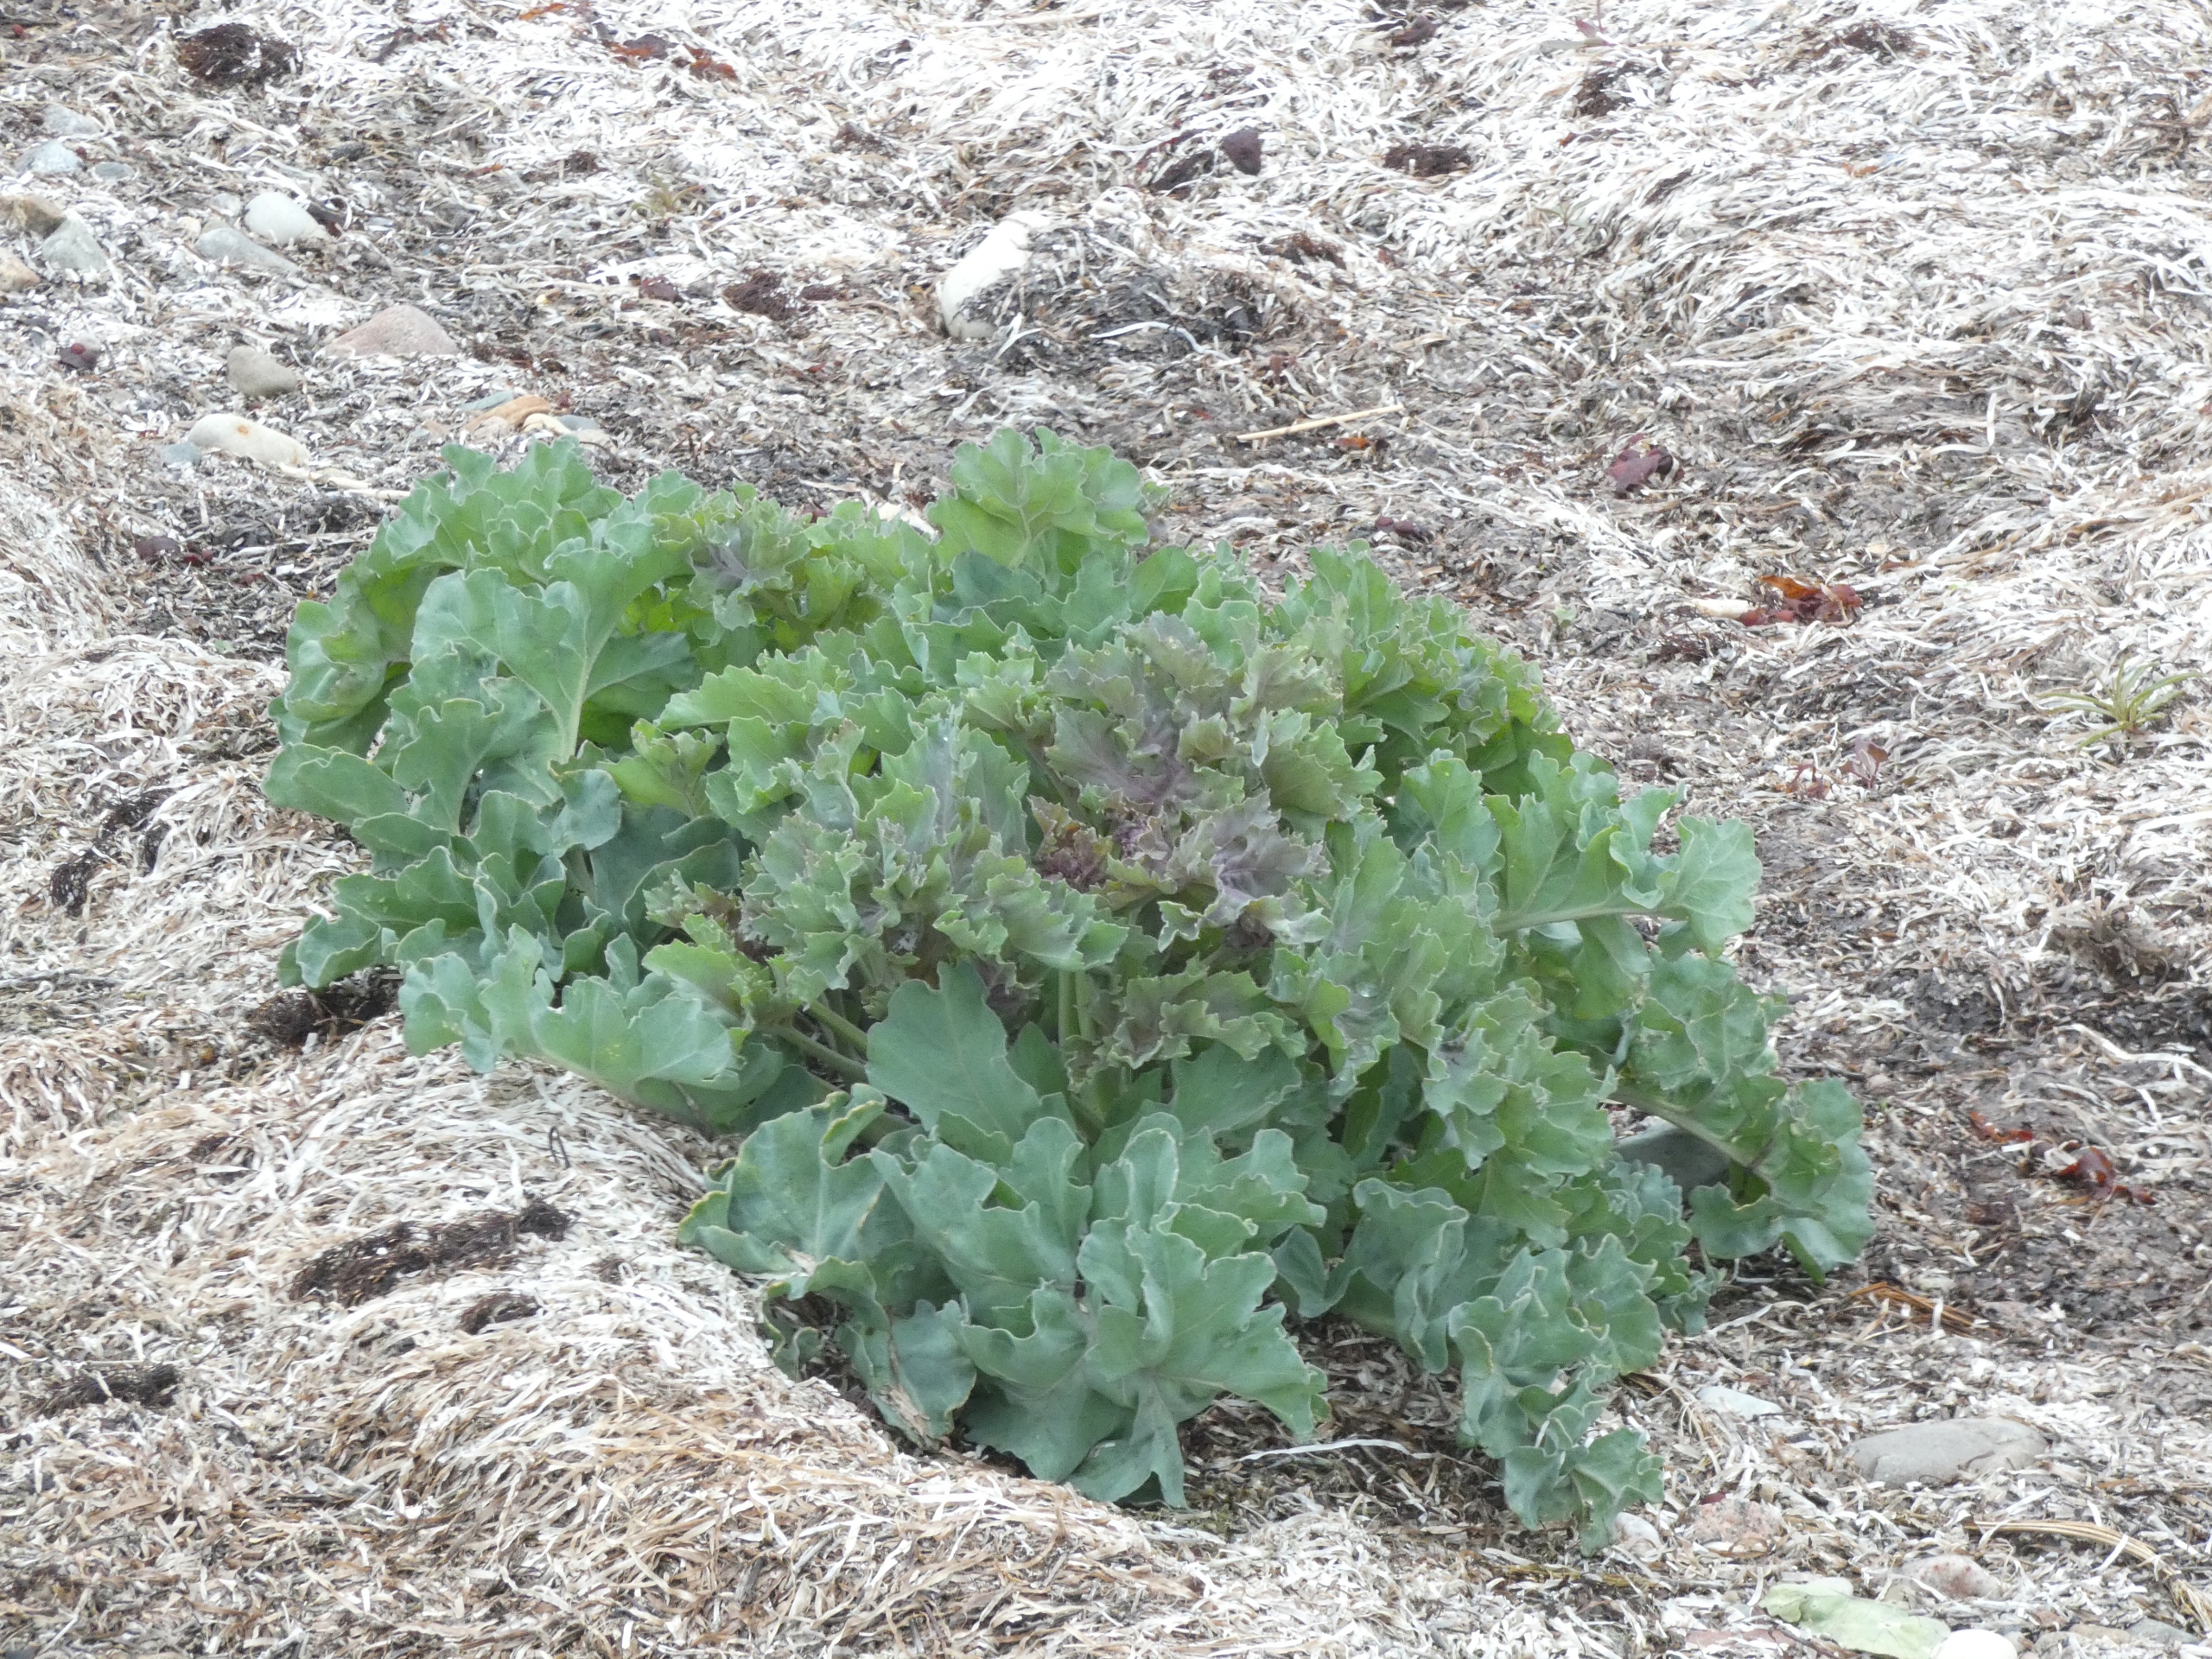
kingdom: Plantae
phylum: Tracheophyta
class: Magnoliopsida
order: Brassicales
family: Brassicaceae
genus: Crambe
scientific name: Crambe maritima
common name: Strandkål
